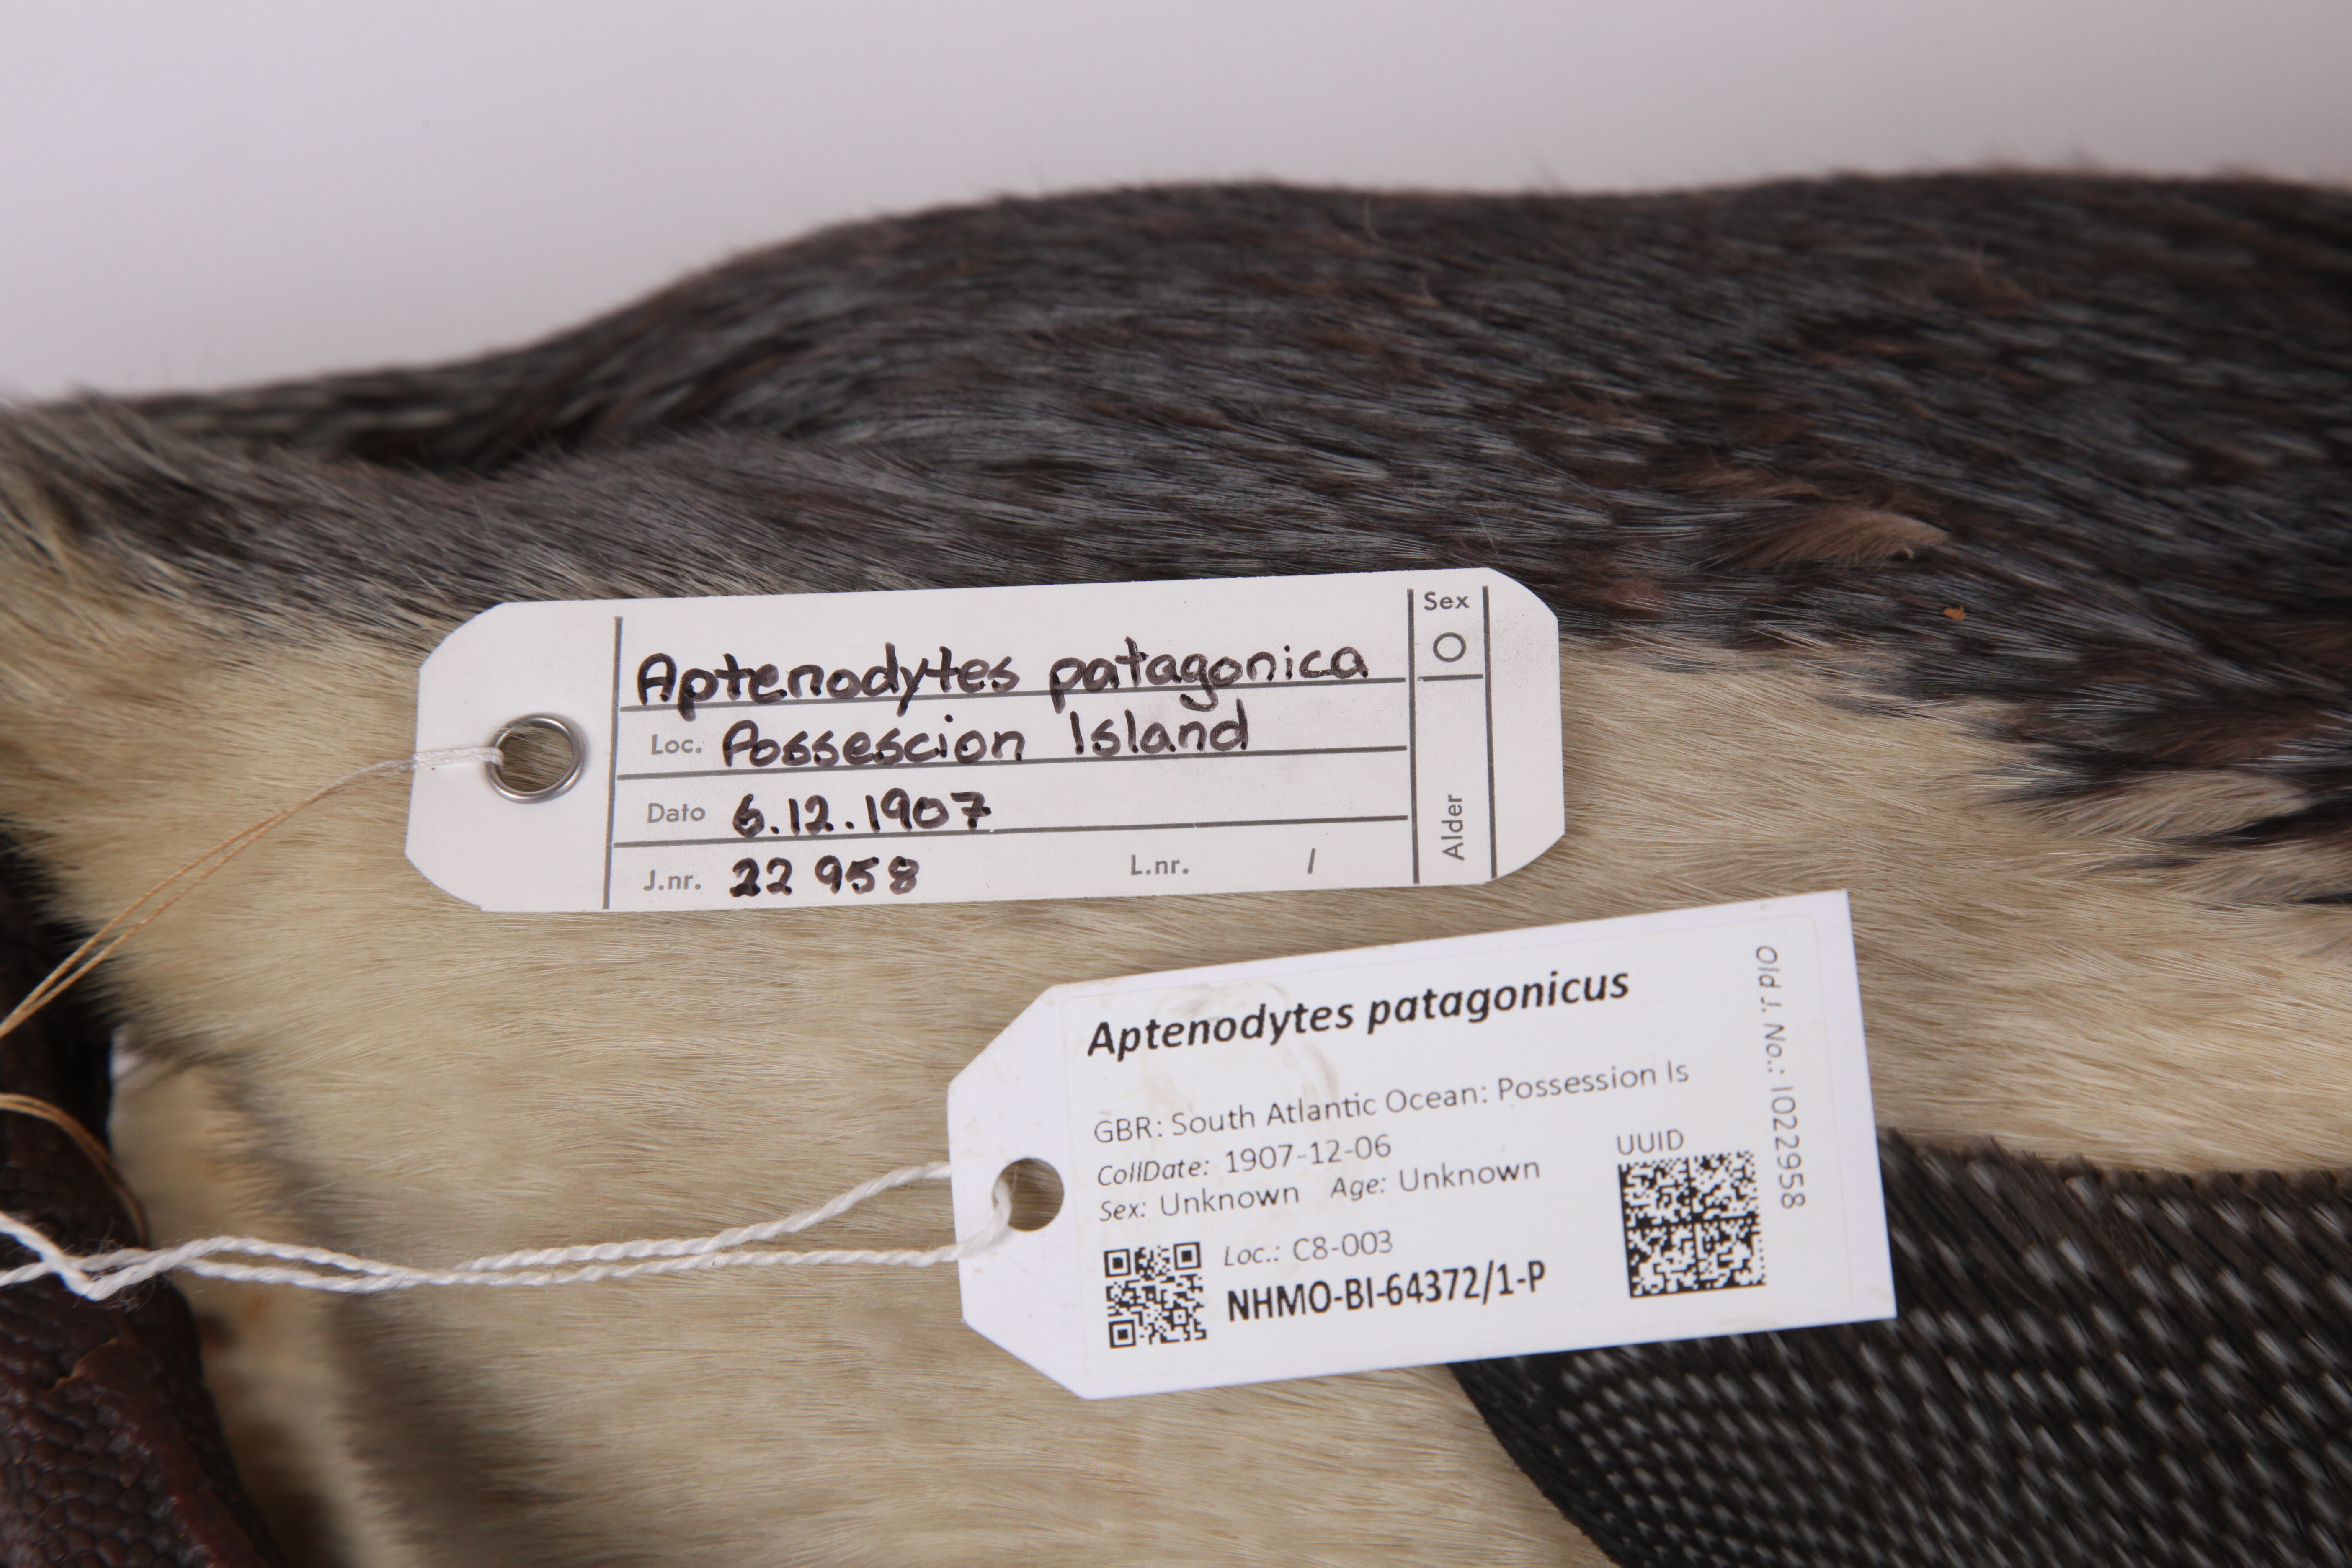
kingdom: Animalia
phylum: Chordata
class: Aves
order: Sphenisciformes
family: Spheniscidae
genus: Aptenodytes
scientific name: Aptenodytes patagonicus
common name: King penguin
